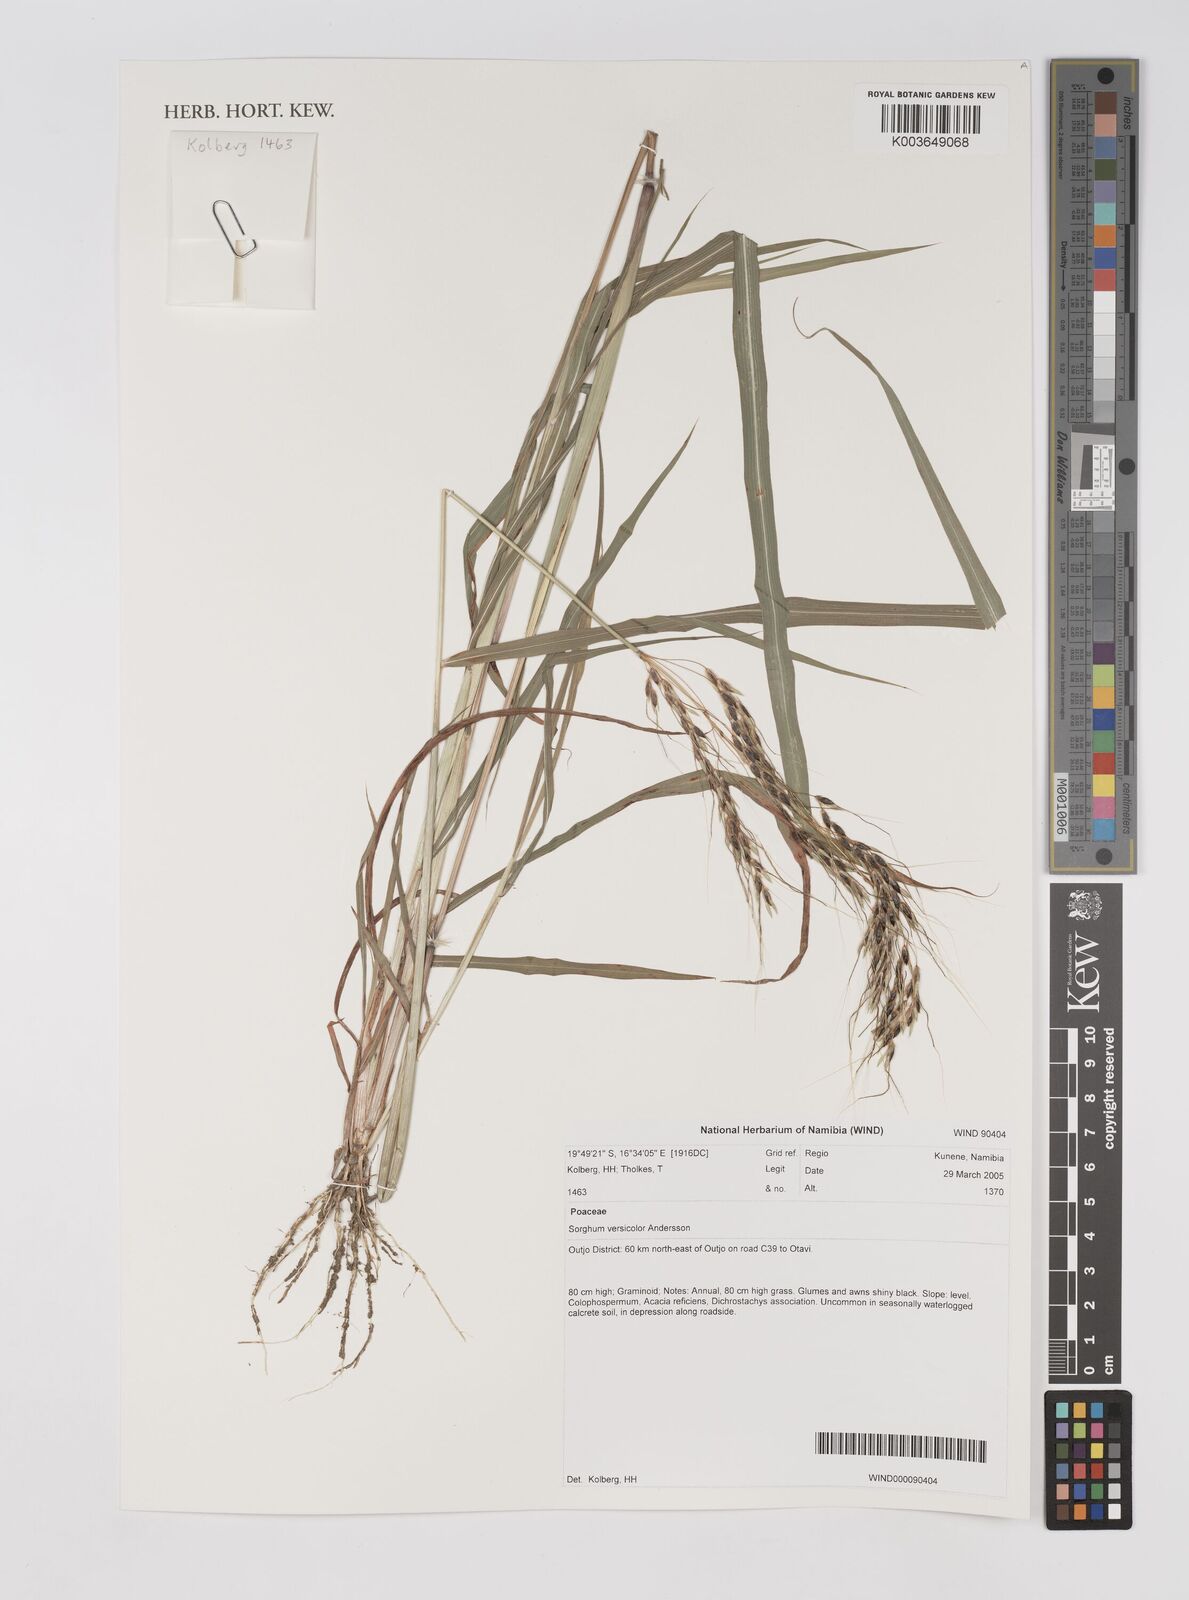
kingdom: Plantae
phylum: Tracheophyta
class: Liliopsida
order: Poales
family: Poaceae
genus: Sarga
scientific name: Sarga versicolor
